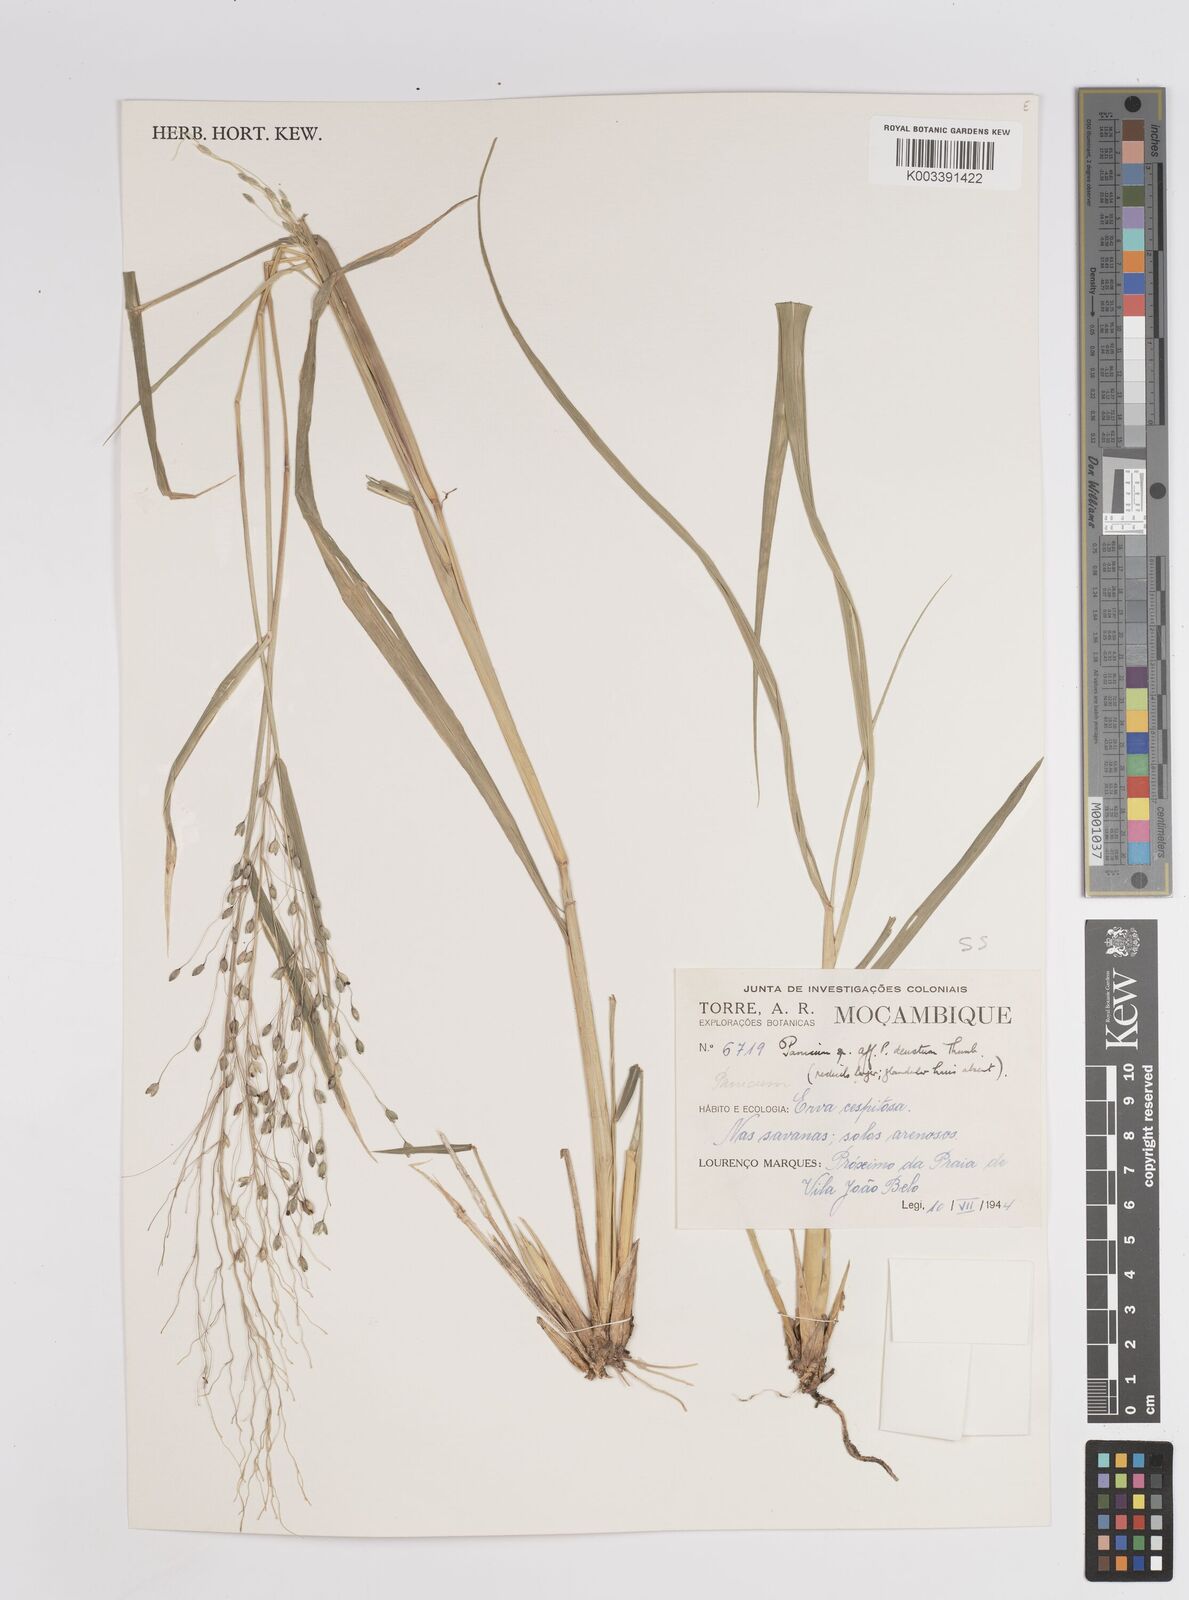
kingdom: Plantae
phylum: Tracheophyta
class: Liliopsida
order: Poales
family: Poaceae
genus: Panicum
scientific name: Panicum deustum
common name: Reed panicum
